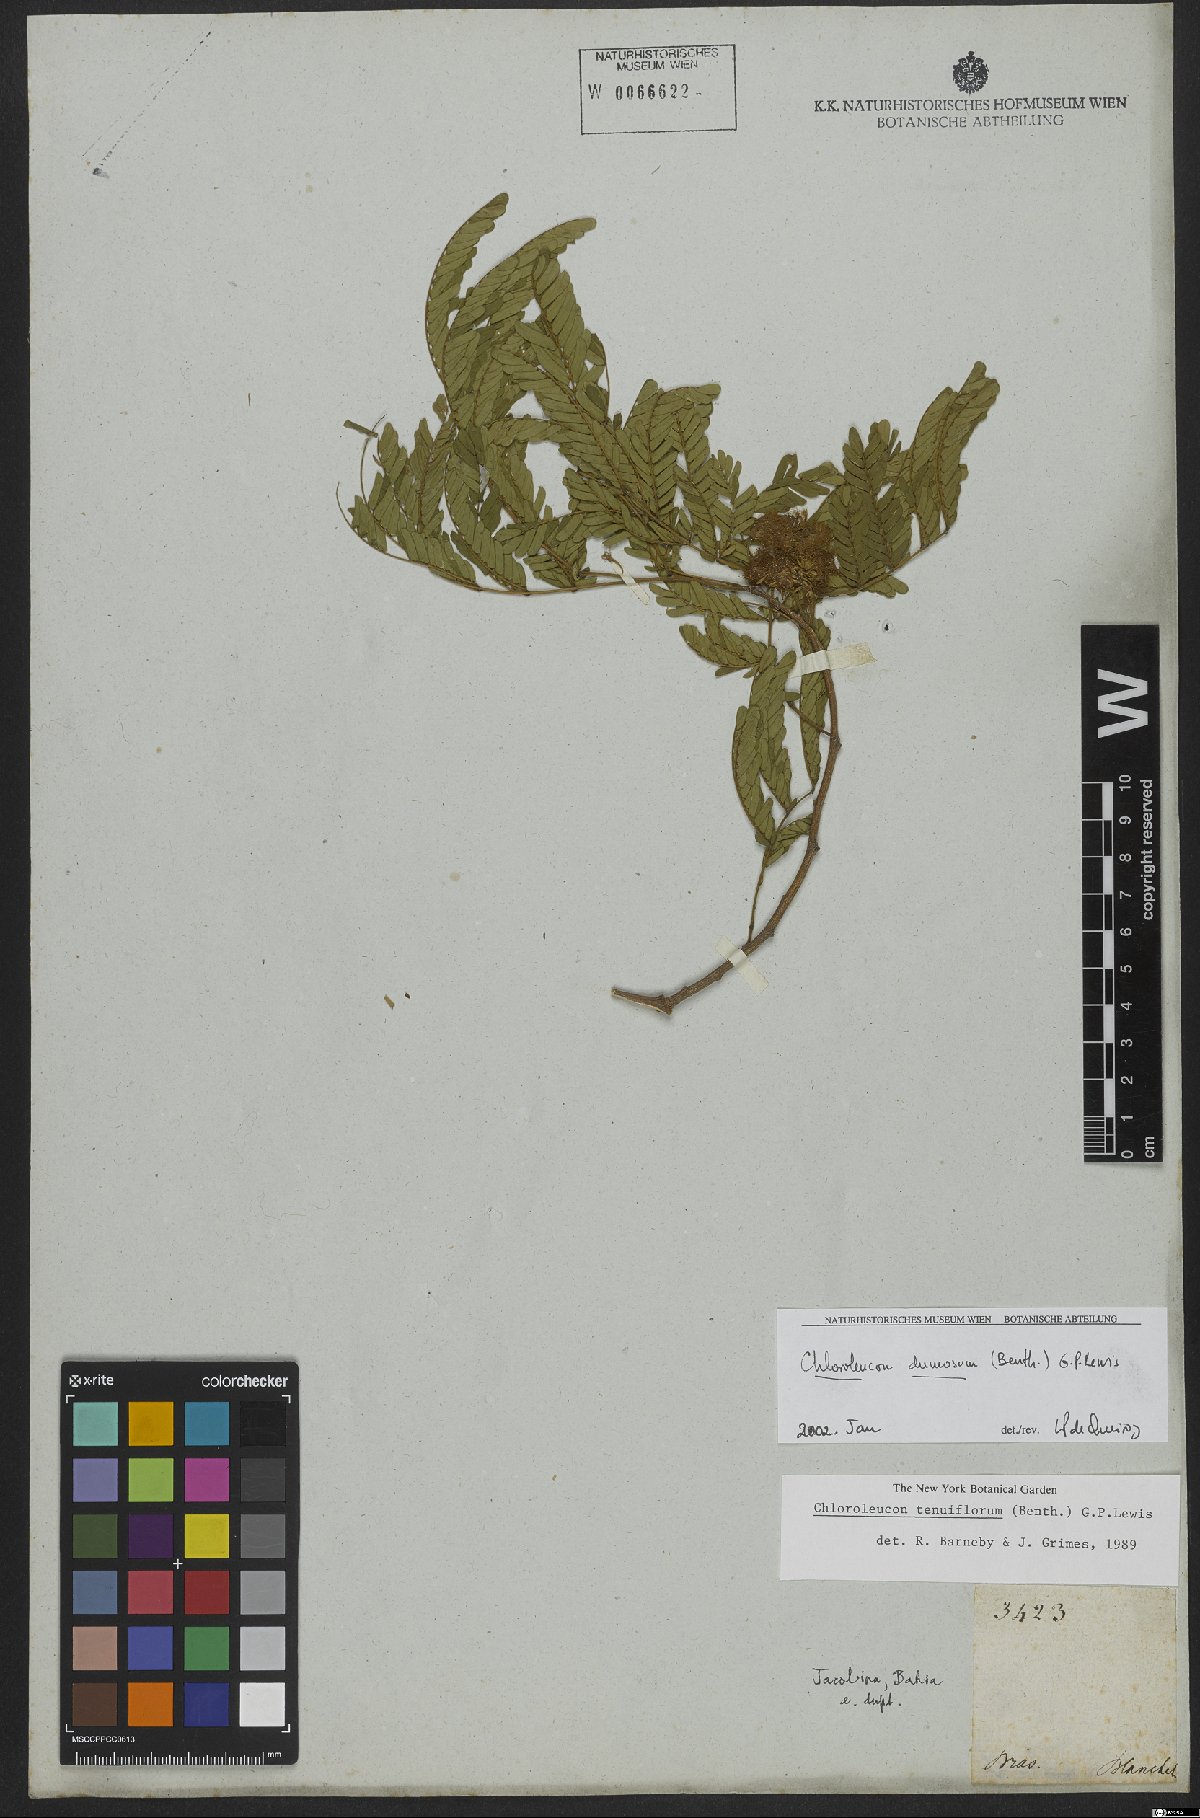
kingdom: Plantae
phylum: Tracheophyta
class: Magnoliopsida
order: Fabales
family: Fabaceae
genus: Chloroleucon
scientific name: Chloroleucon dumosum
